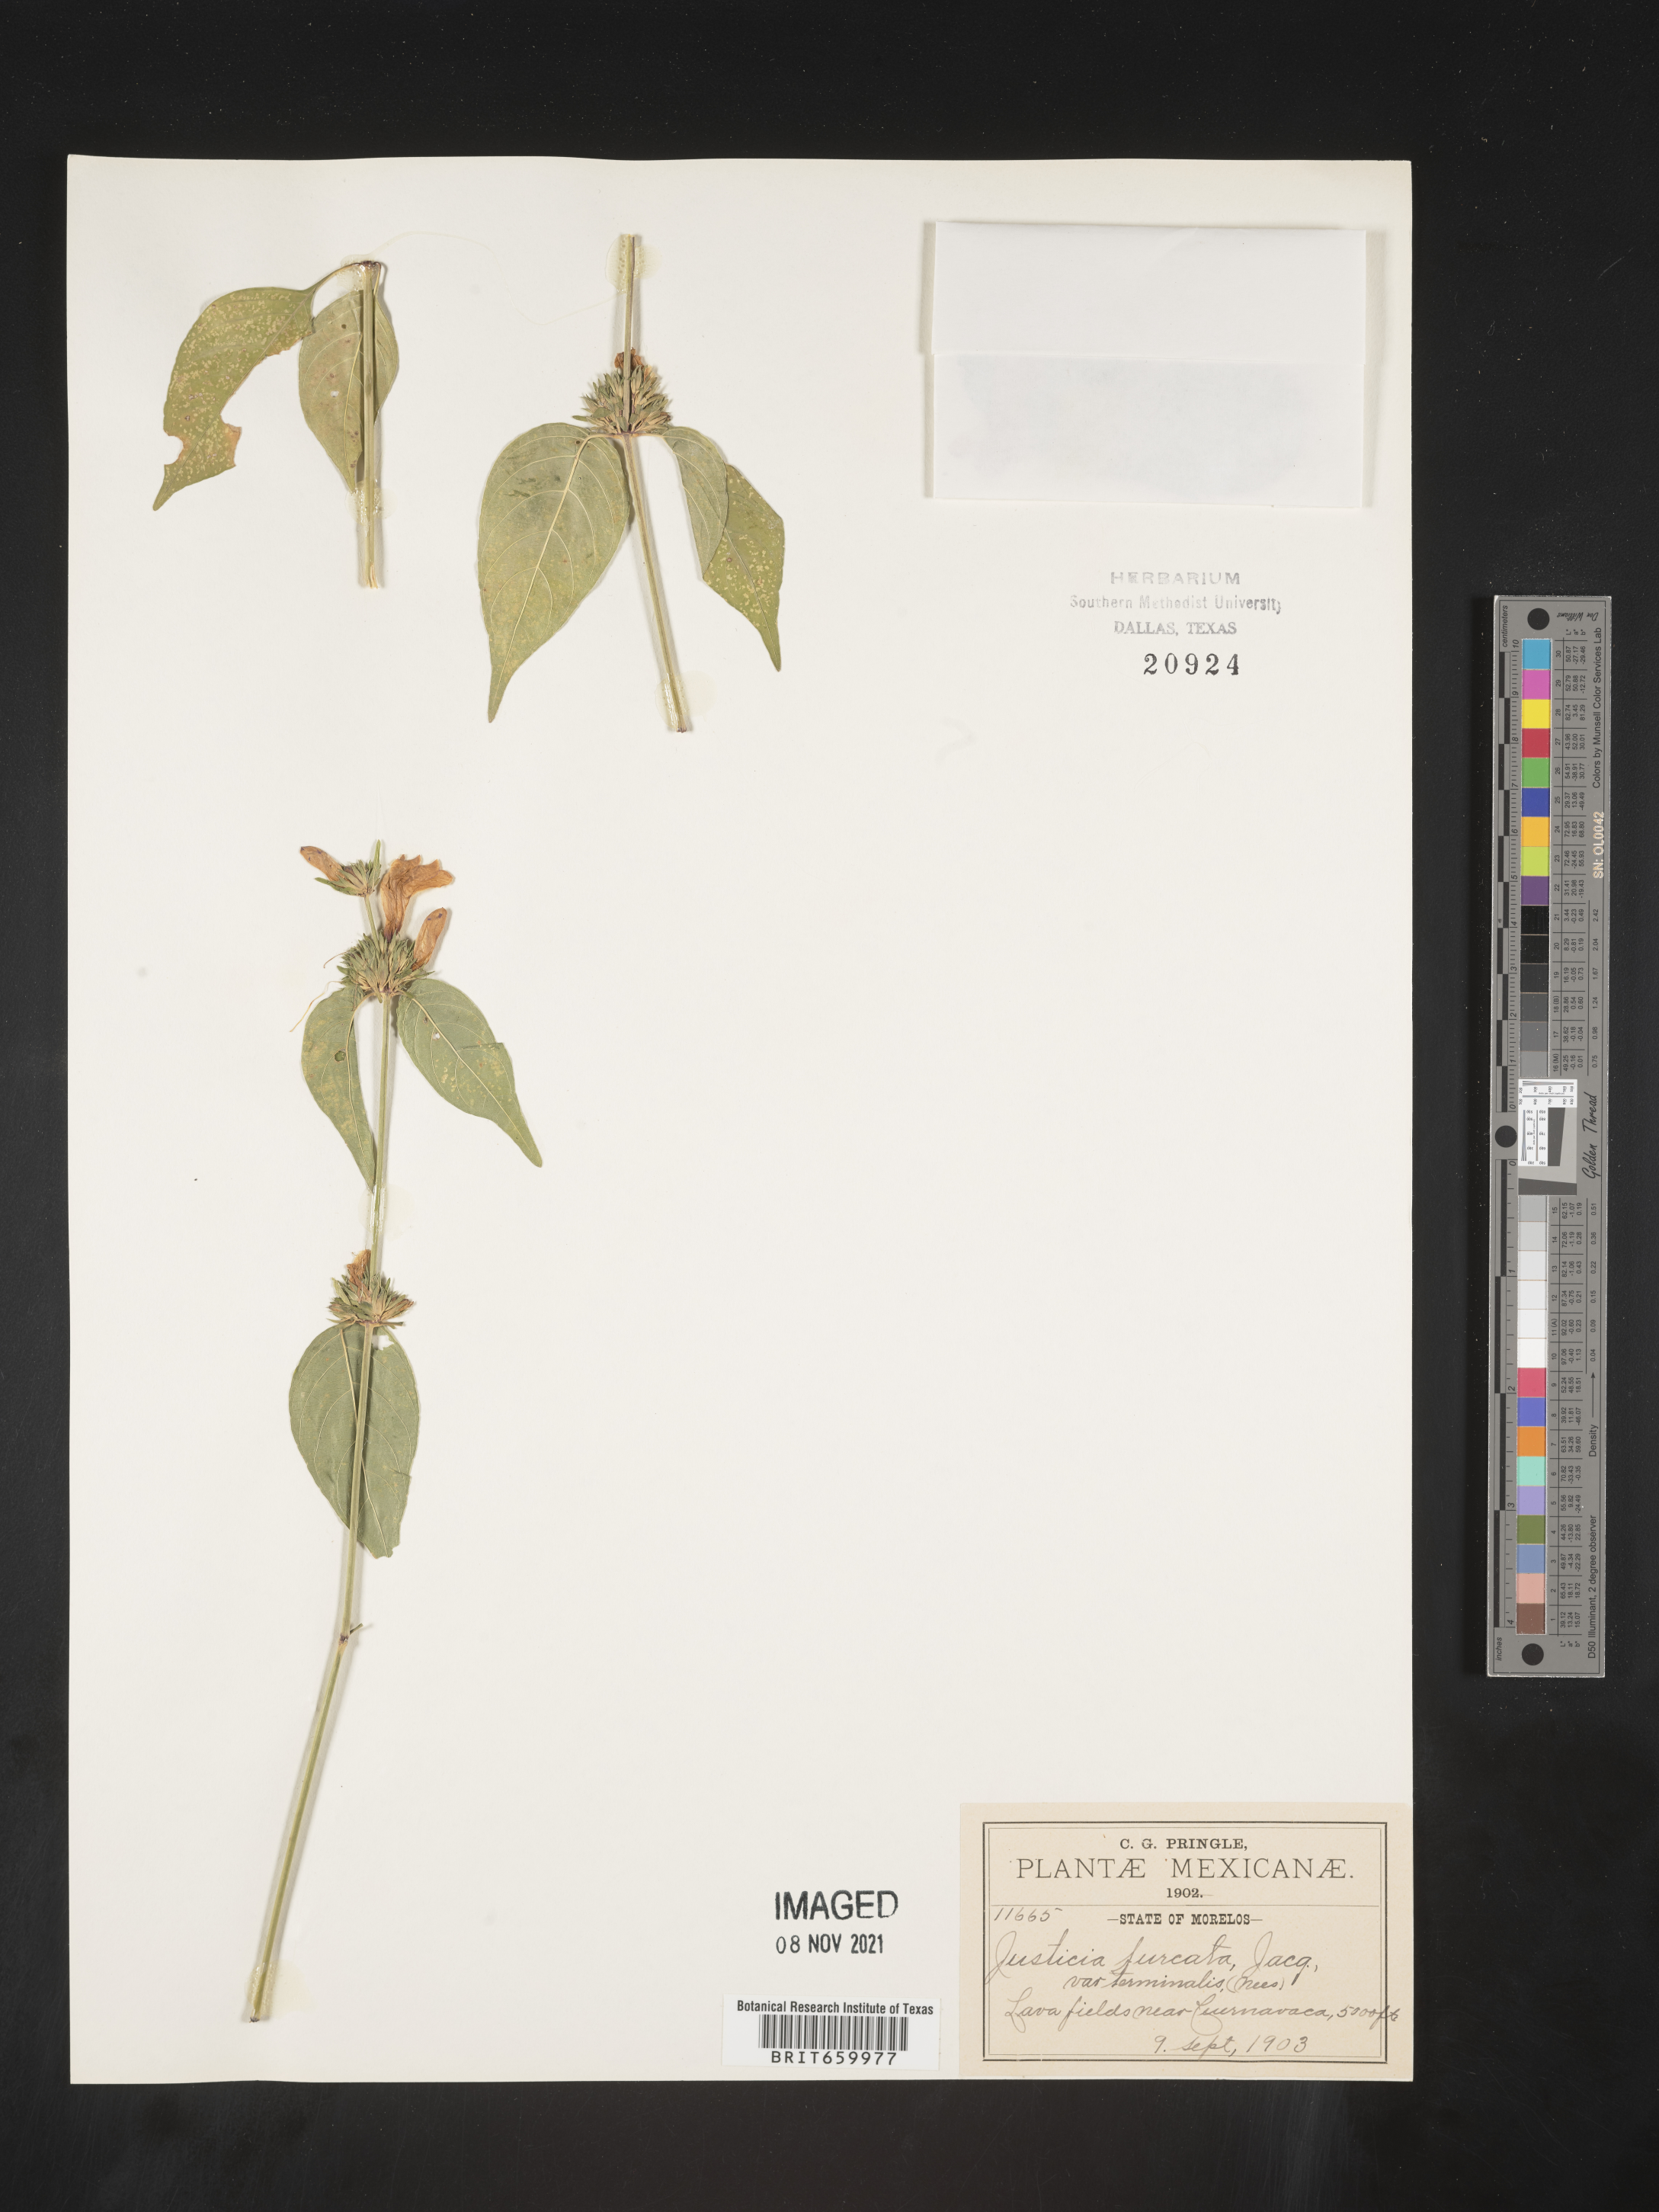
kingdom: Plantae
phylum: Tracheophyta
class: Magnoliopsida
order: Lamiales
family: Acanthaceae
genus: Justicia
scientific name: Justicia
